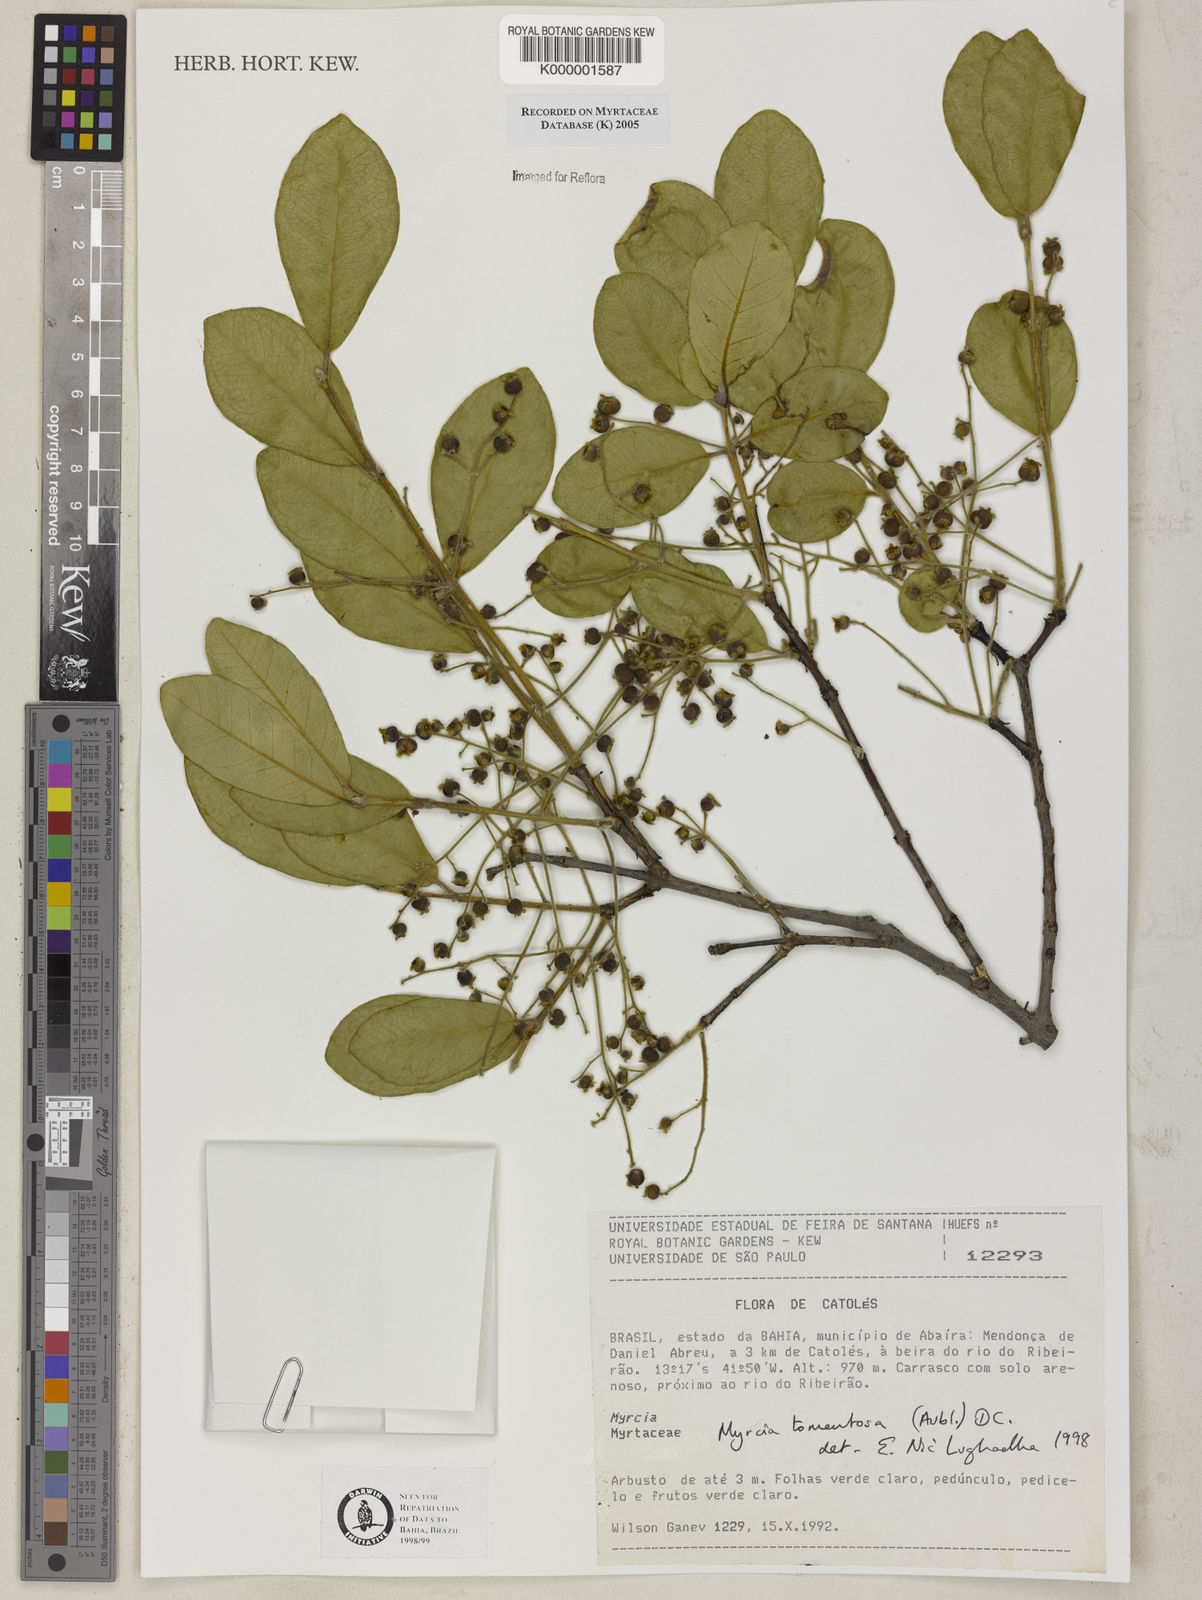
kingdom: Plantae
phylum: Tracheophyta
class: Magnoliopsida
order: Myrtales
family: Myrtaceae
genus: Myrcia
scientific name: Myrcia tomentosa
